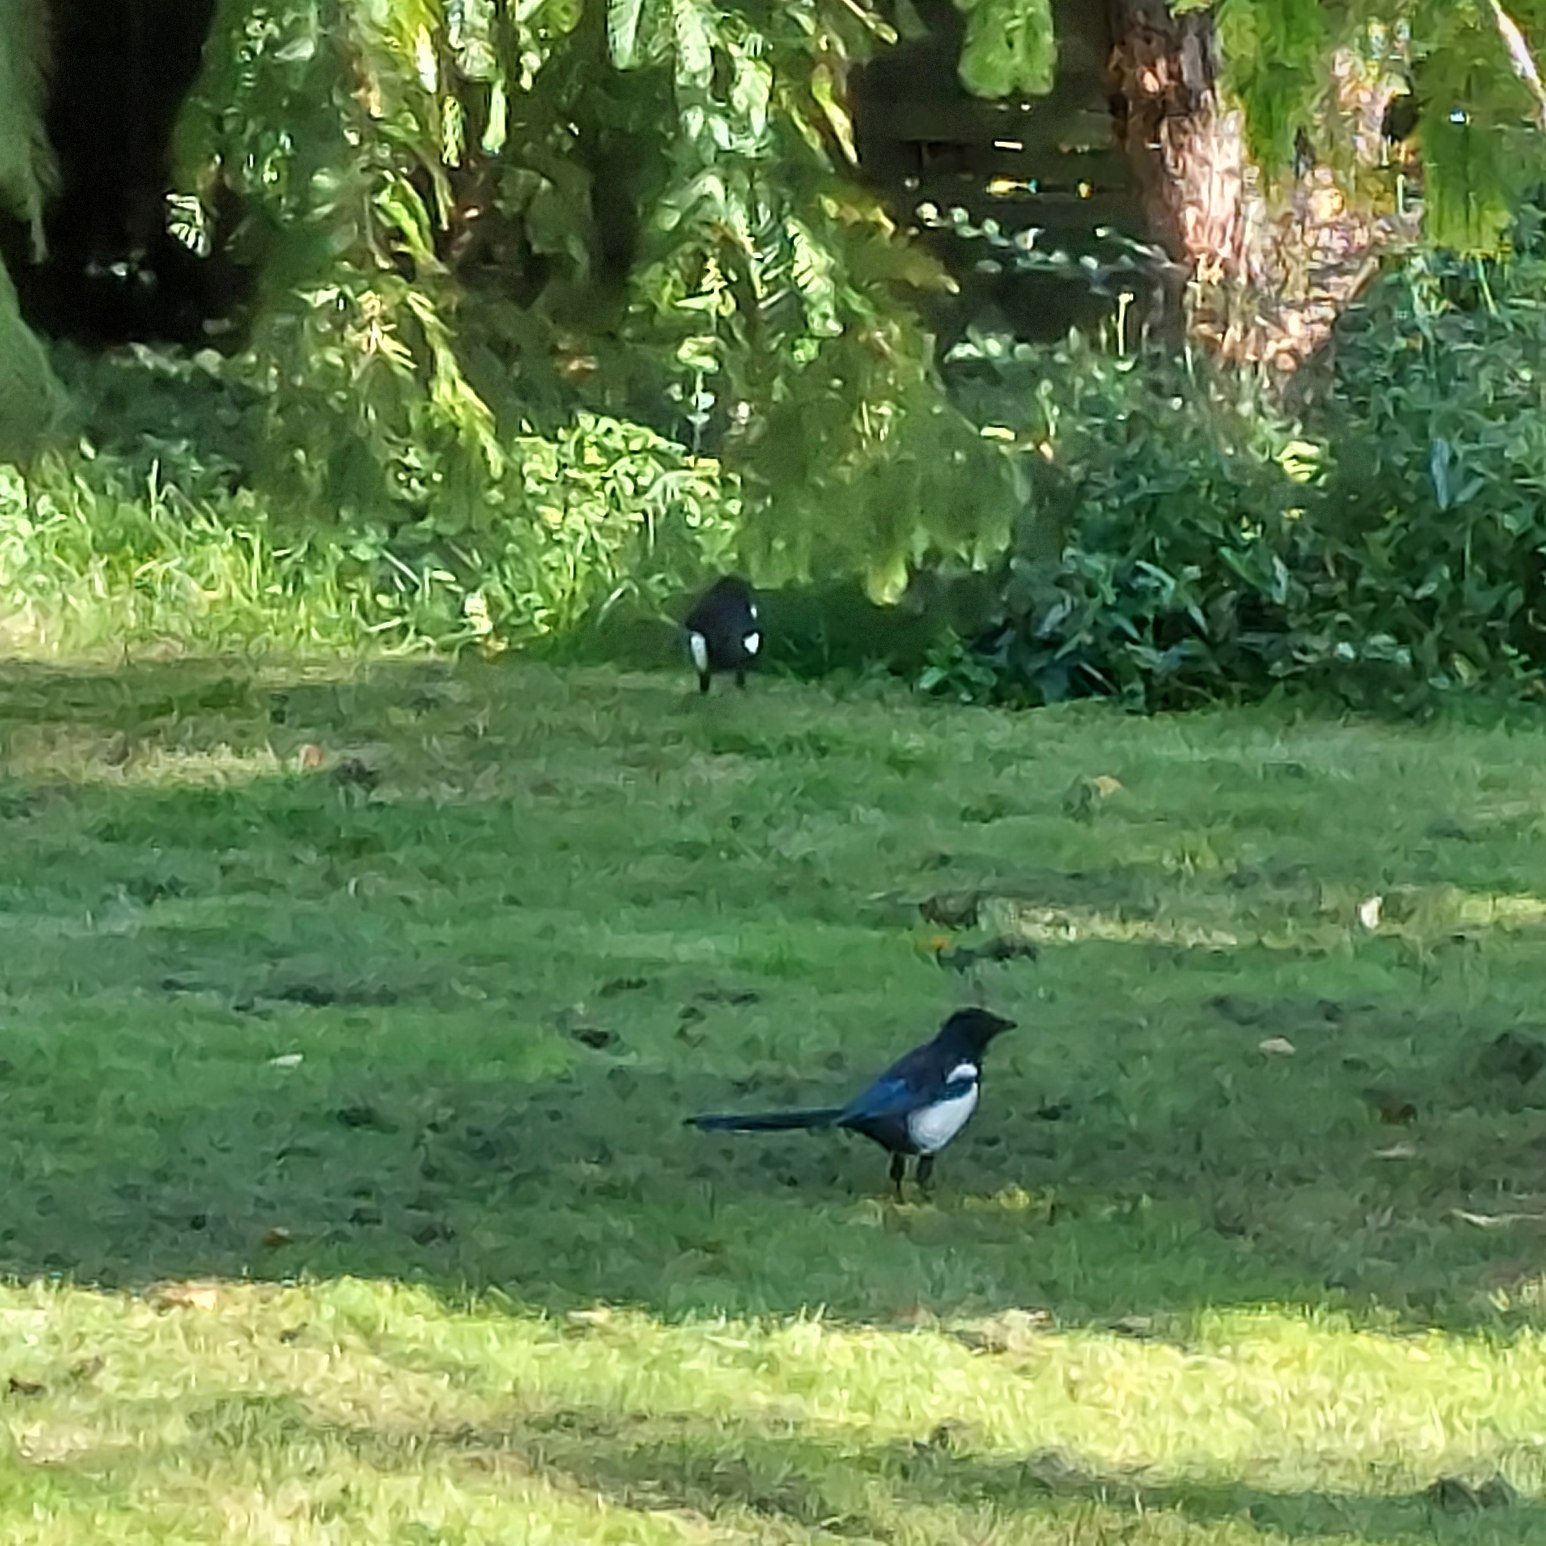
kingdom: Animalia
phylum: Chordata
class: Aves
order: Passeriformes
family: Corvidae
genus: Pica
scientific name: Pica pica
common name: Husskade
